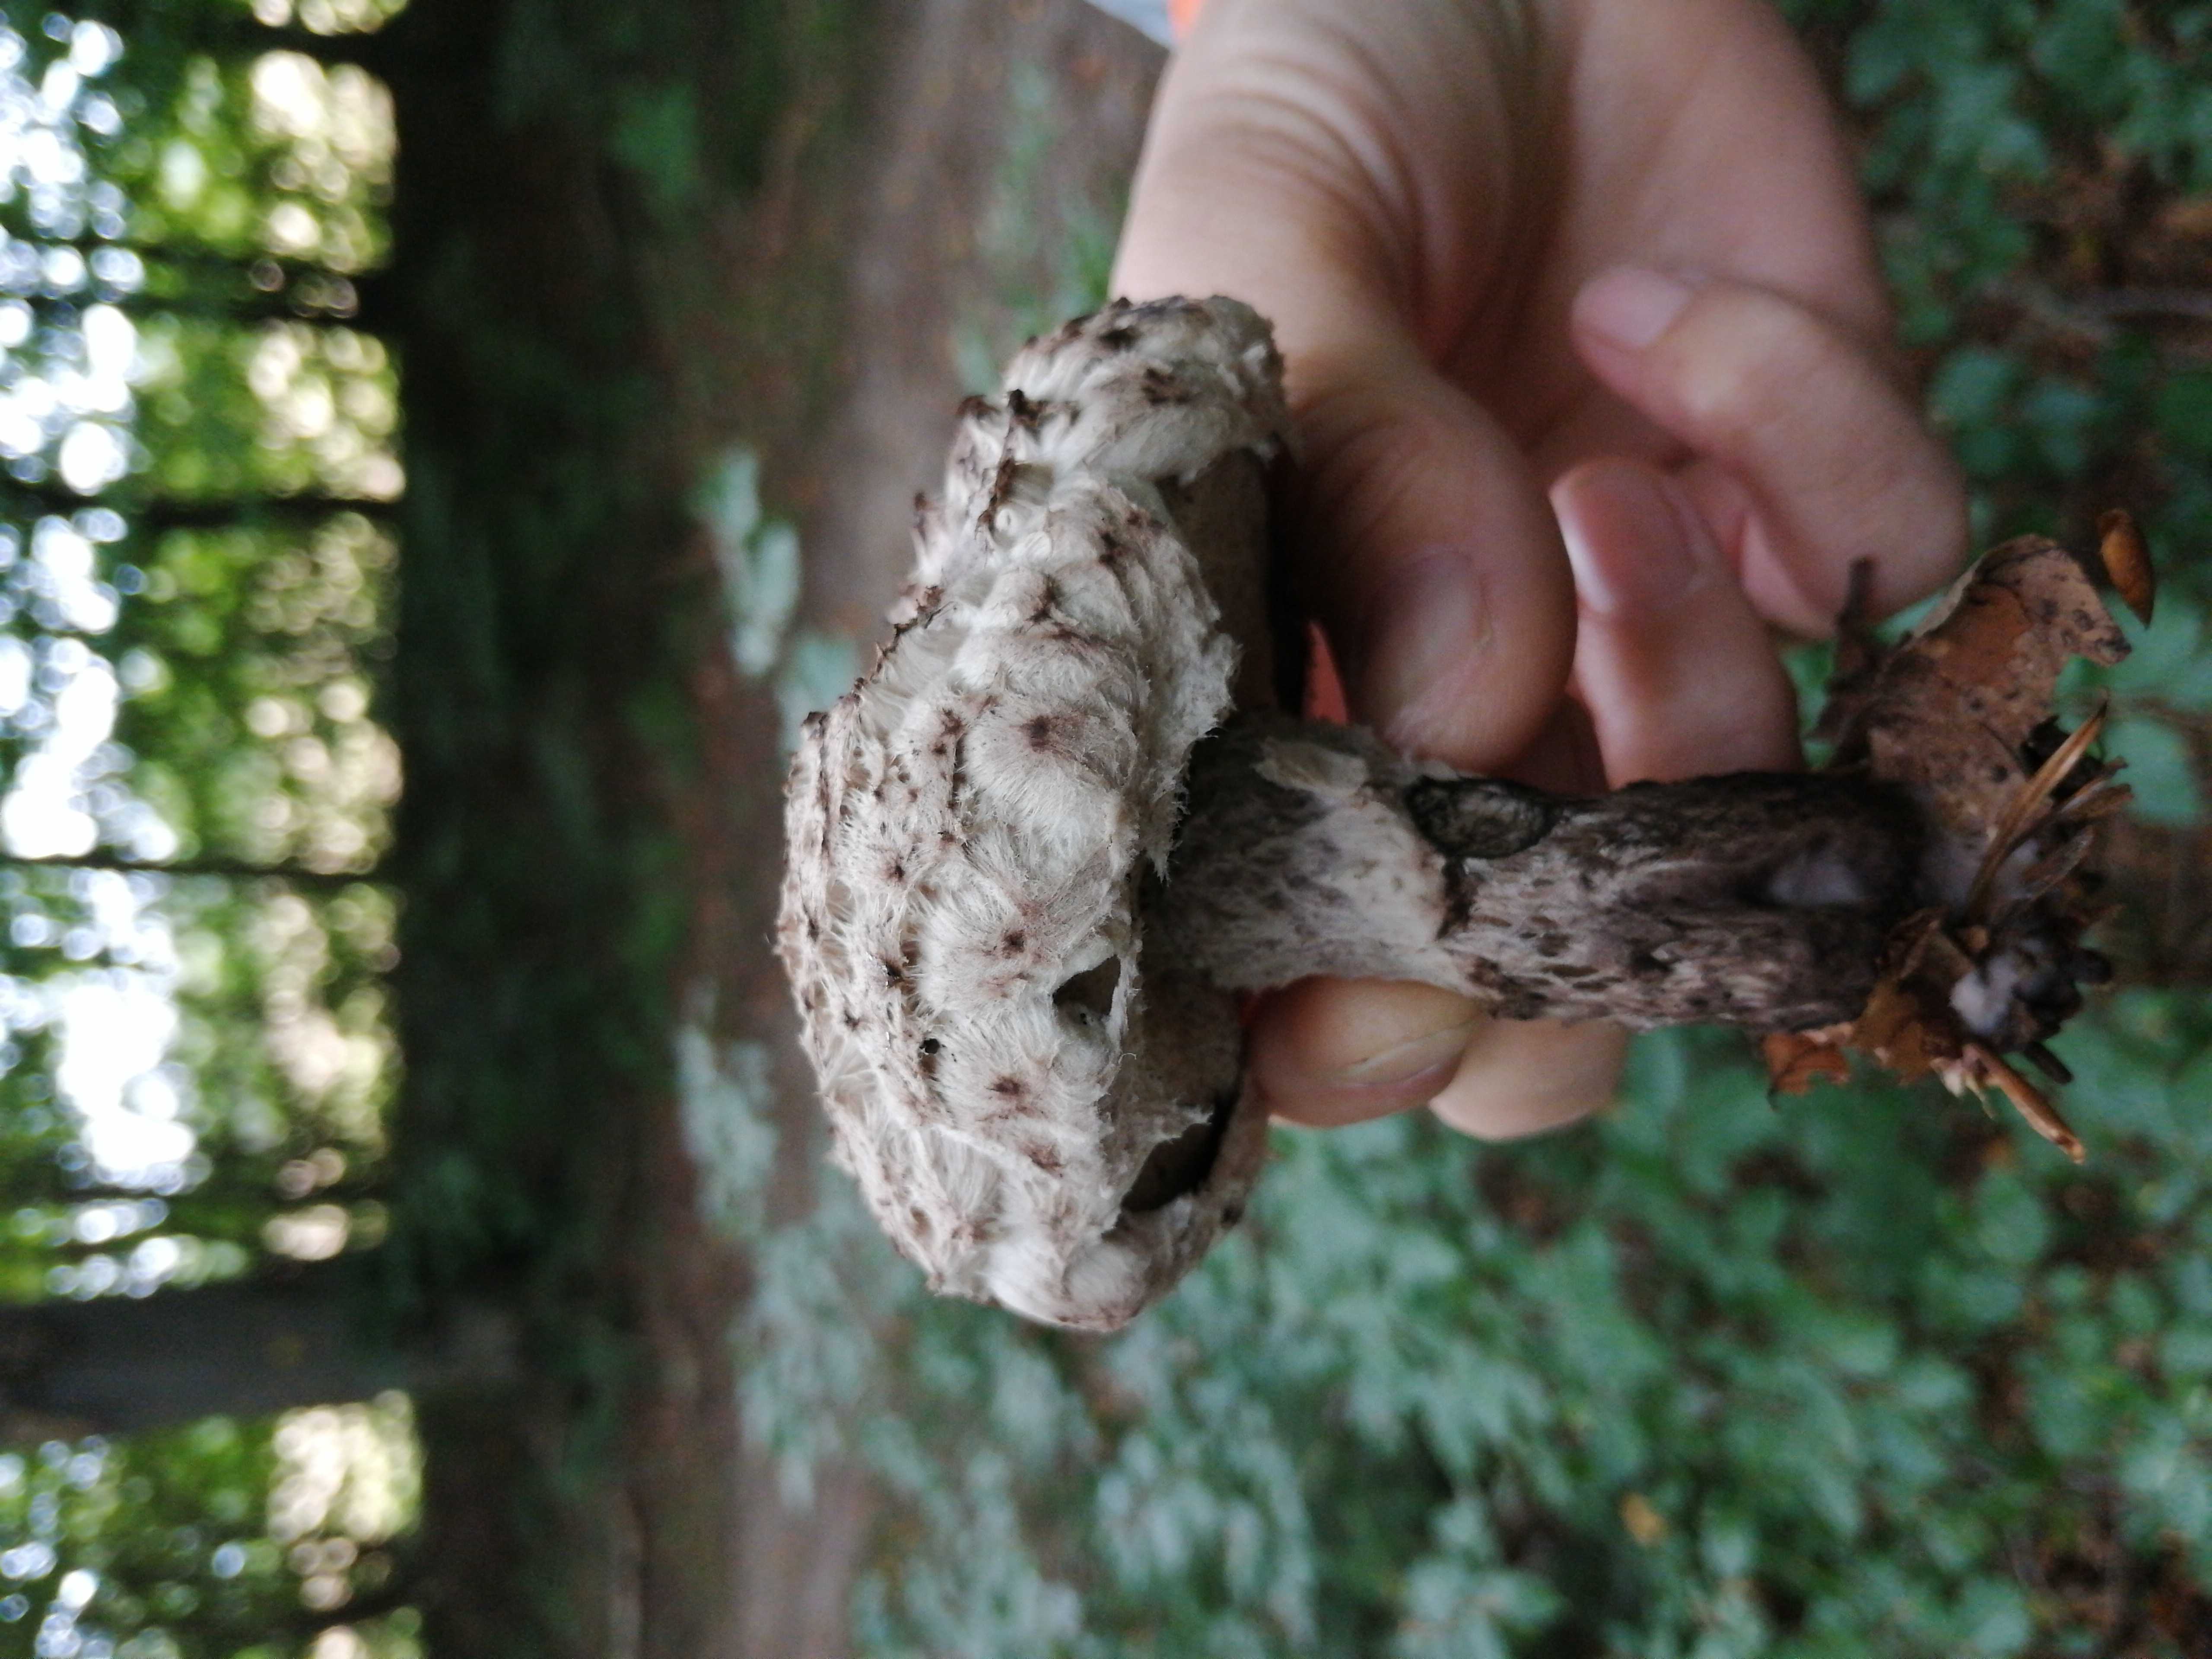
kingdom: Fungi
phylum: Basidiomycota
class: Agaricomycetes
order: Boletales
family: Boletaceae
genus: Strobilomyces
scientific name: Strobilomyces strobilaceus
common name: koglerørhat
